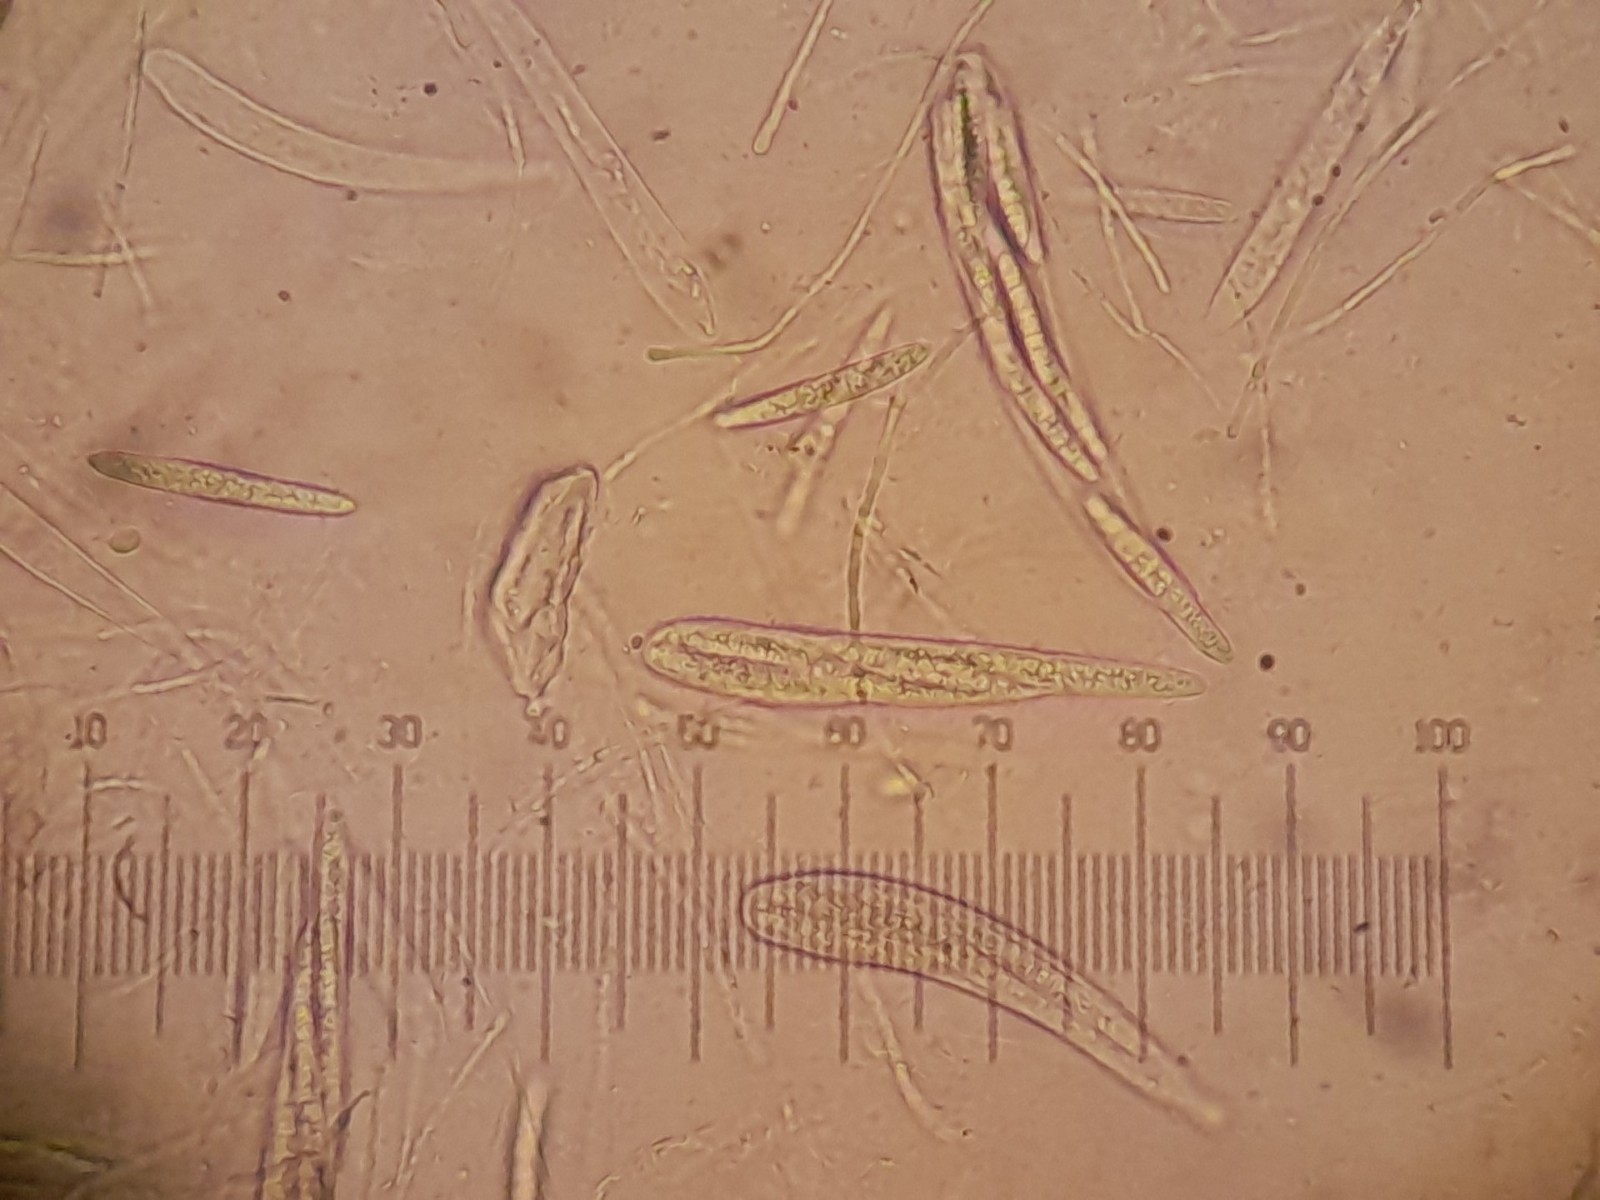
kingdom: Fungi
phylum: Ascomycota
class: Leotiomycetes
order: Helotiales
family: Helotiaceae
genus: Durella
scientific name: Durella connivens
